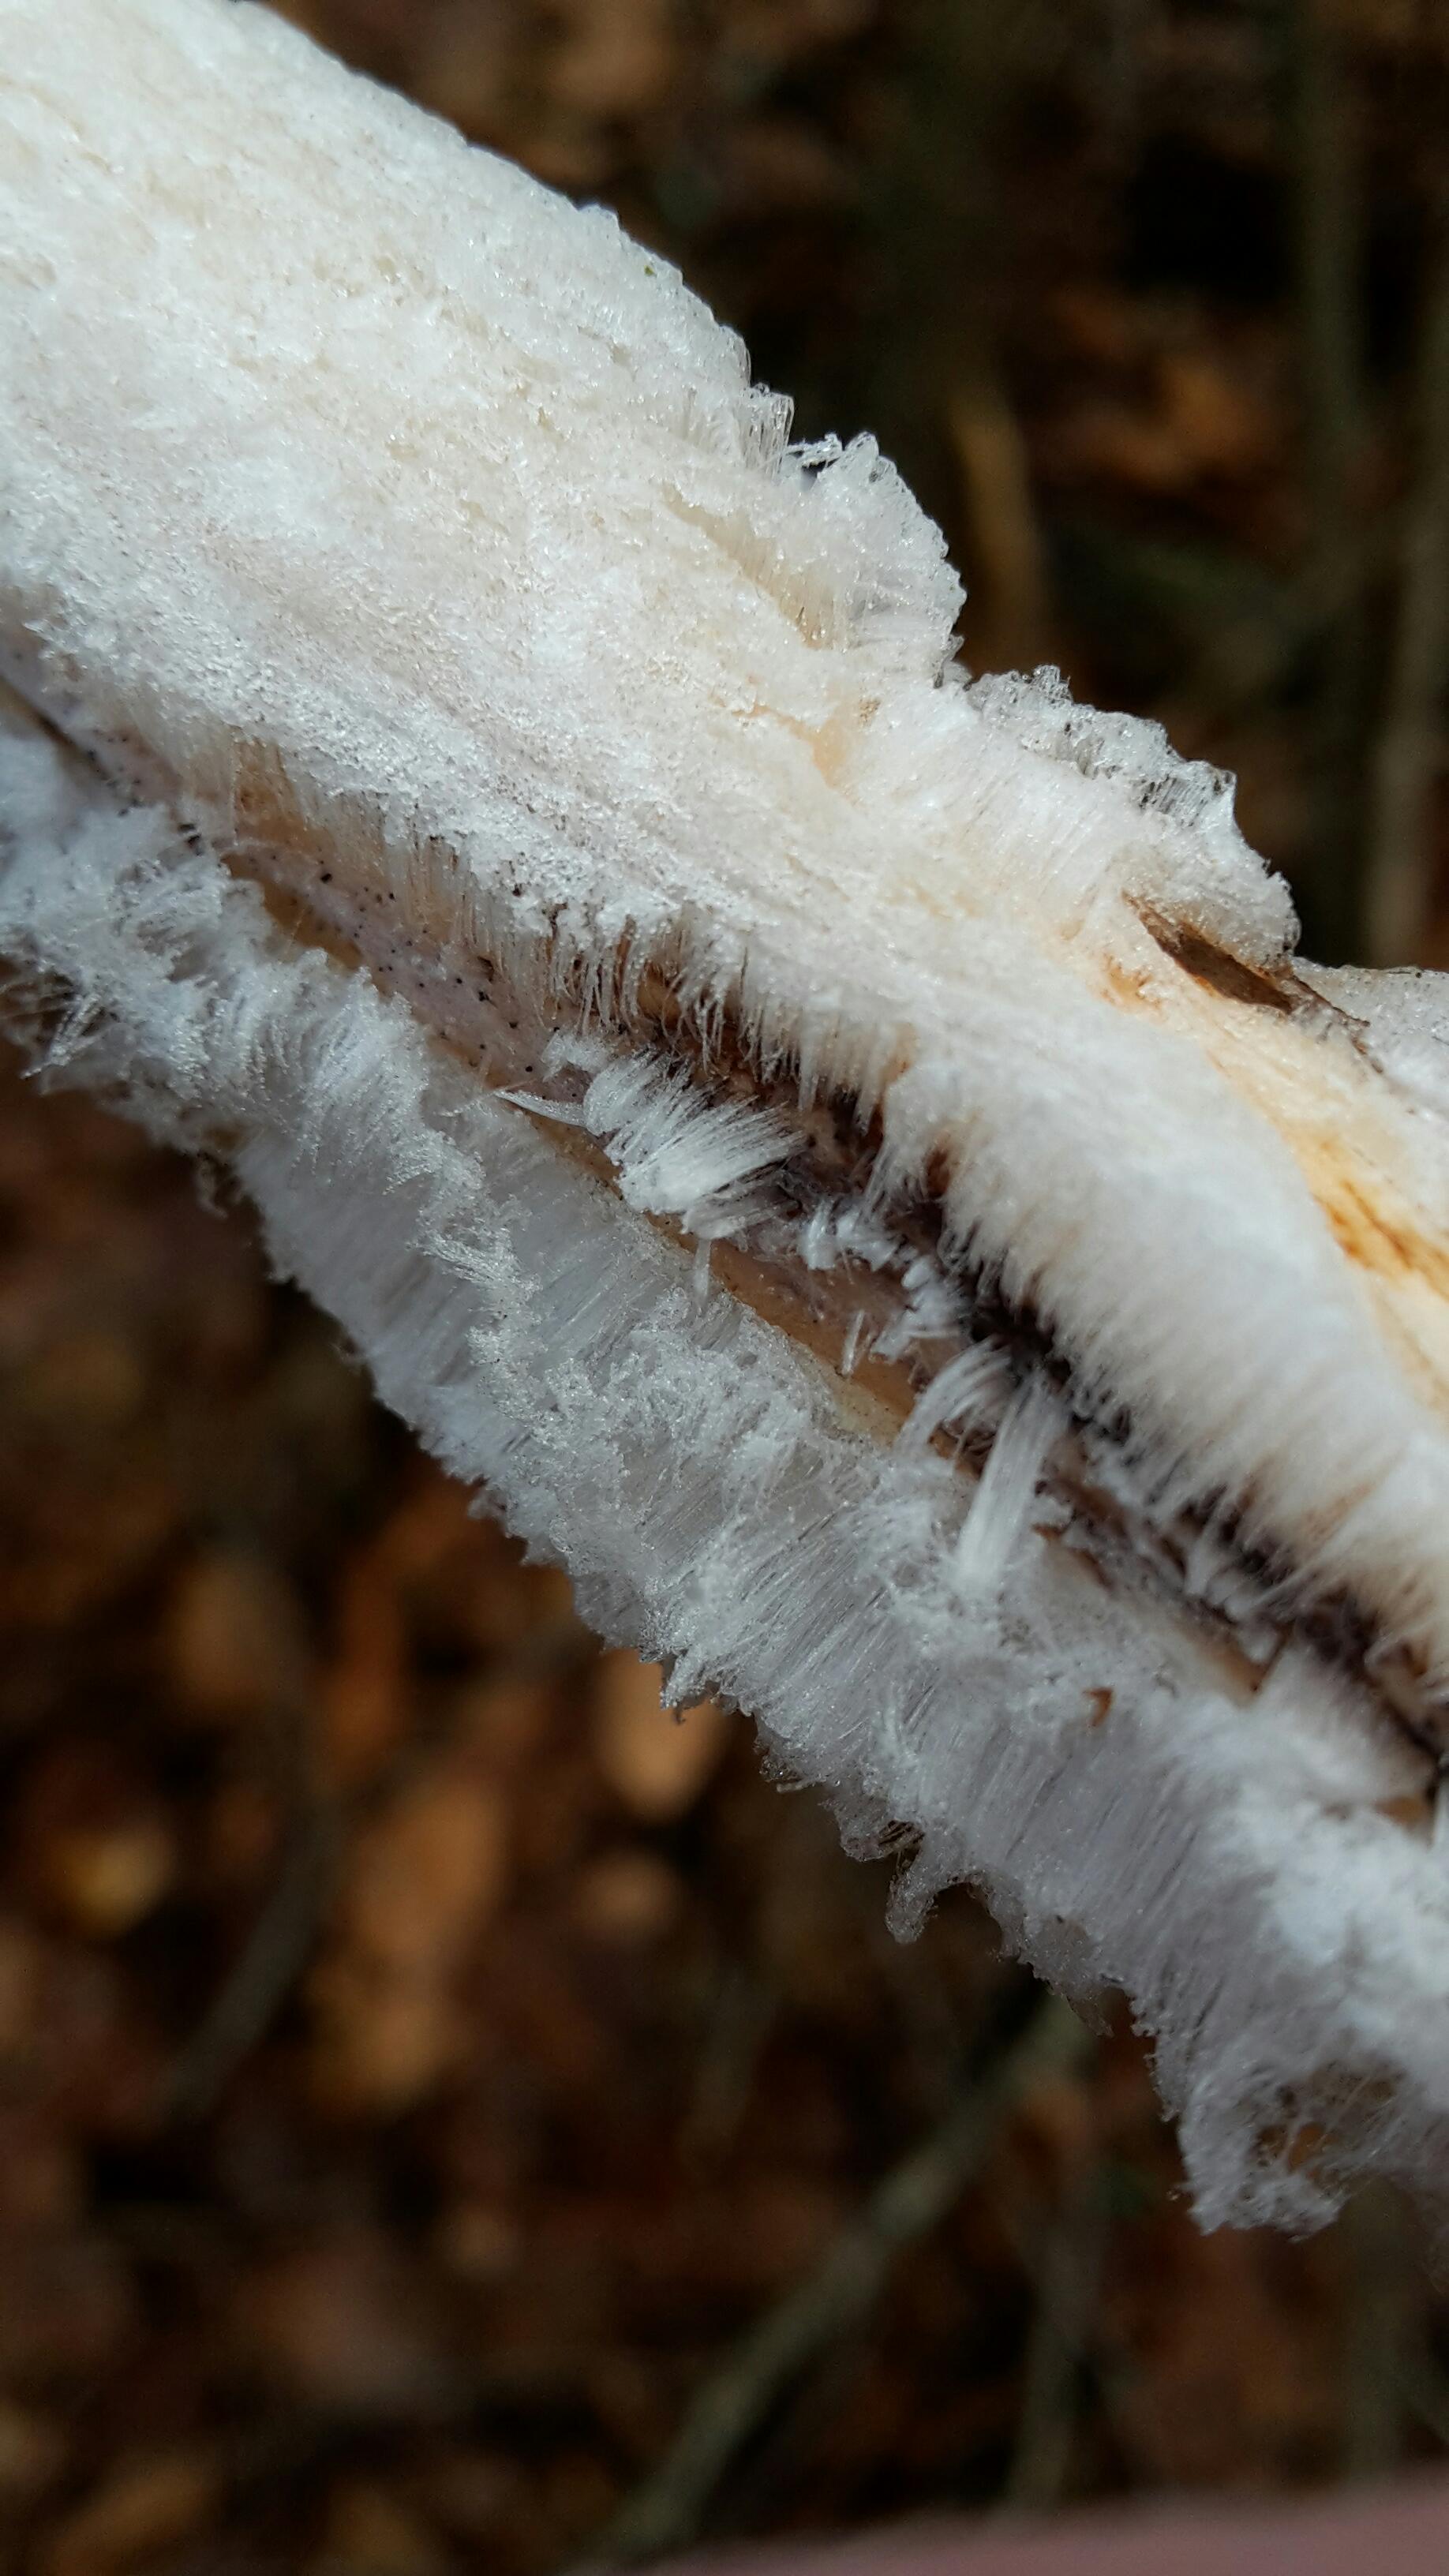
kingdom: Fungi
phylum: Basidiomycota
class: Tremellomycetes
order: Tremellales
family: Exidiaceae
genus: Exidiopsis
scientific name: Exidiopsis effusa
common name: smuk bævrehinde
